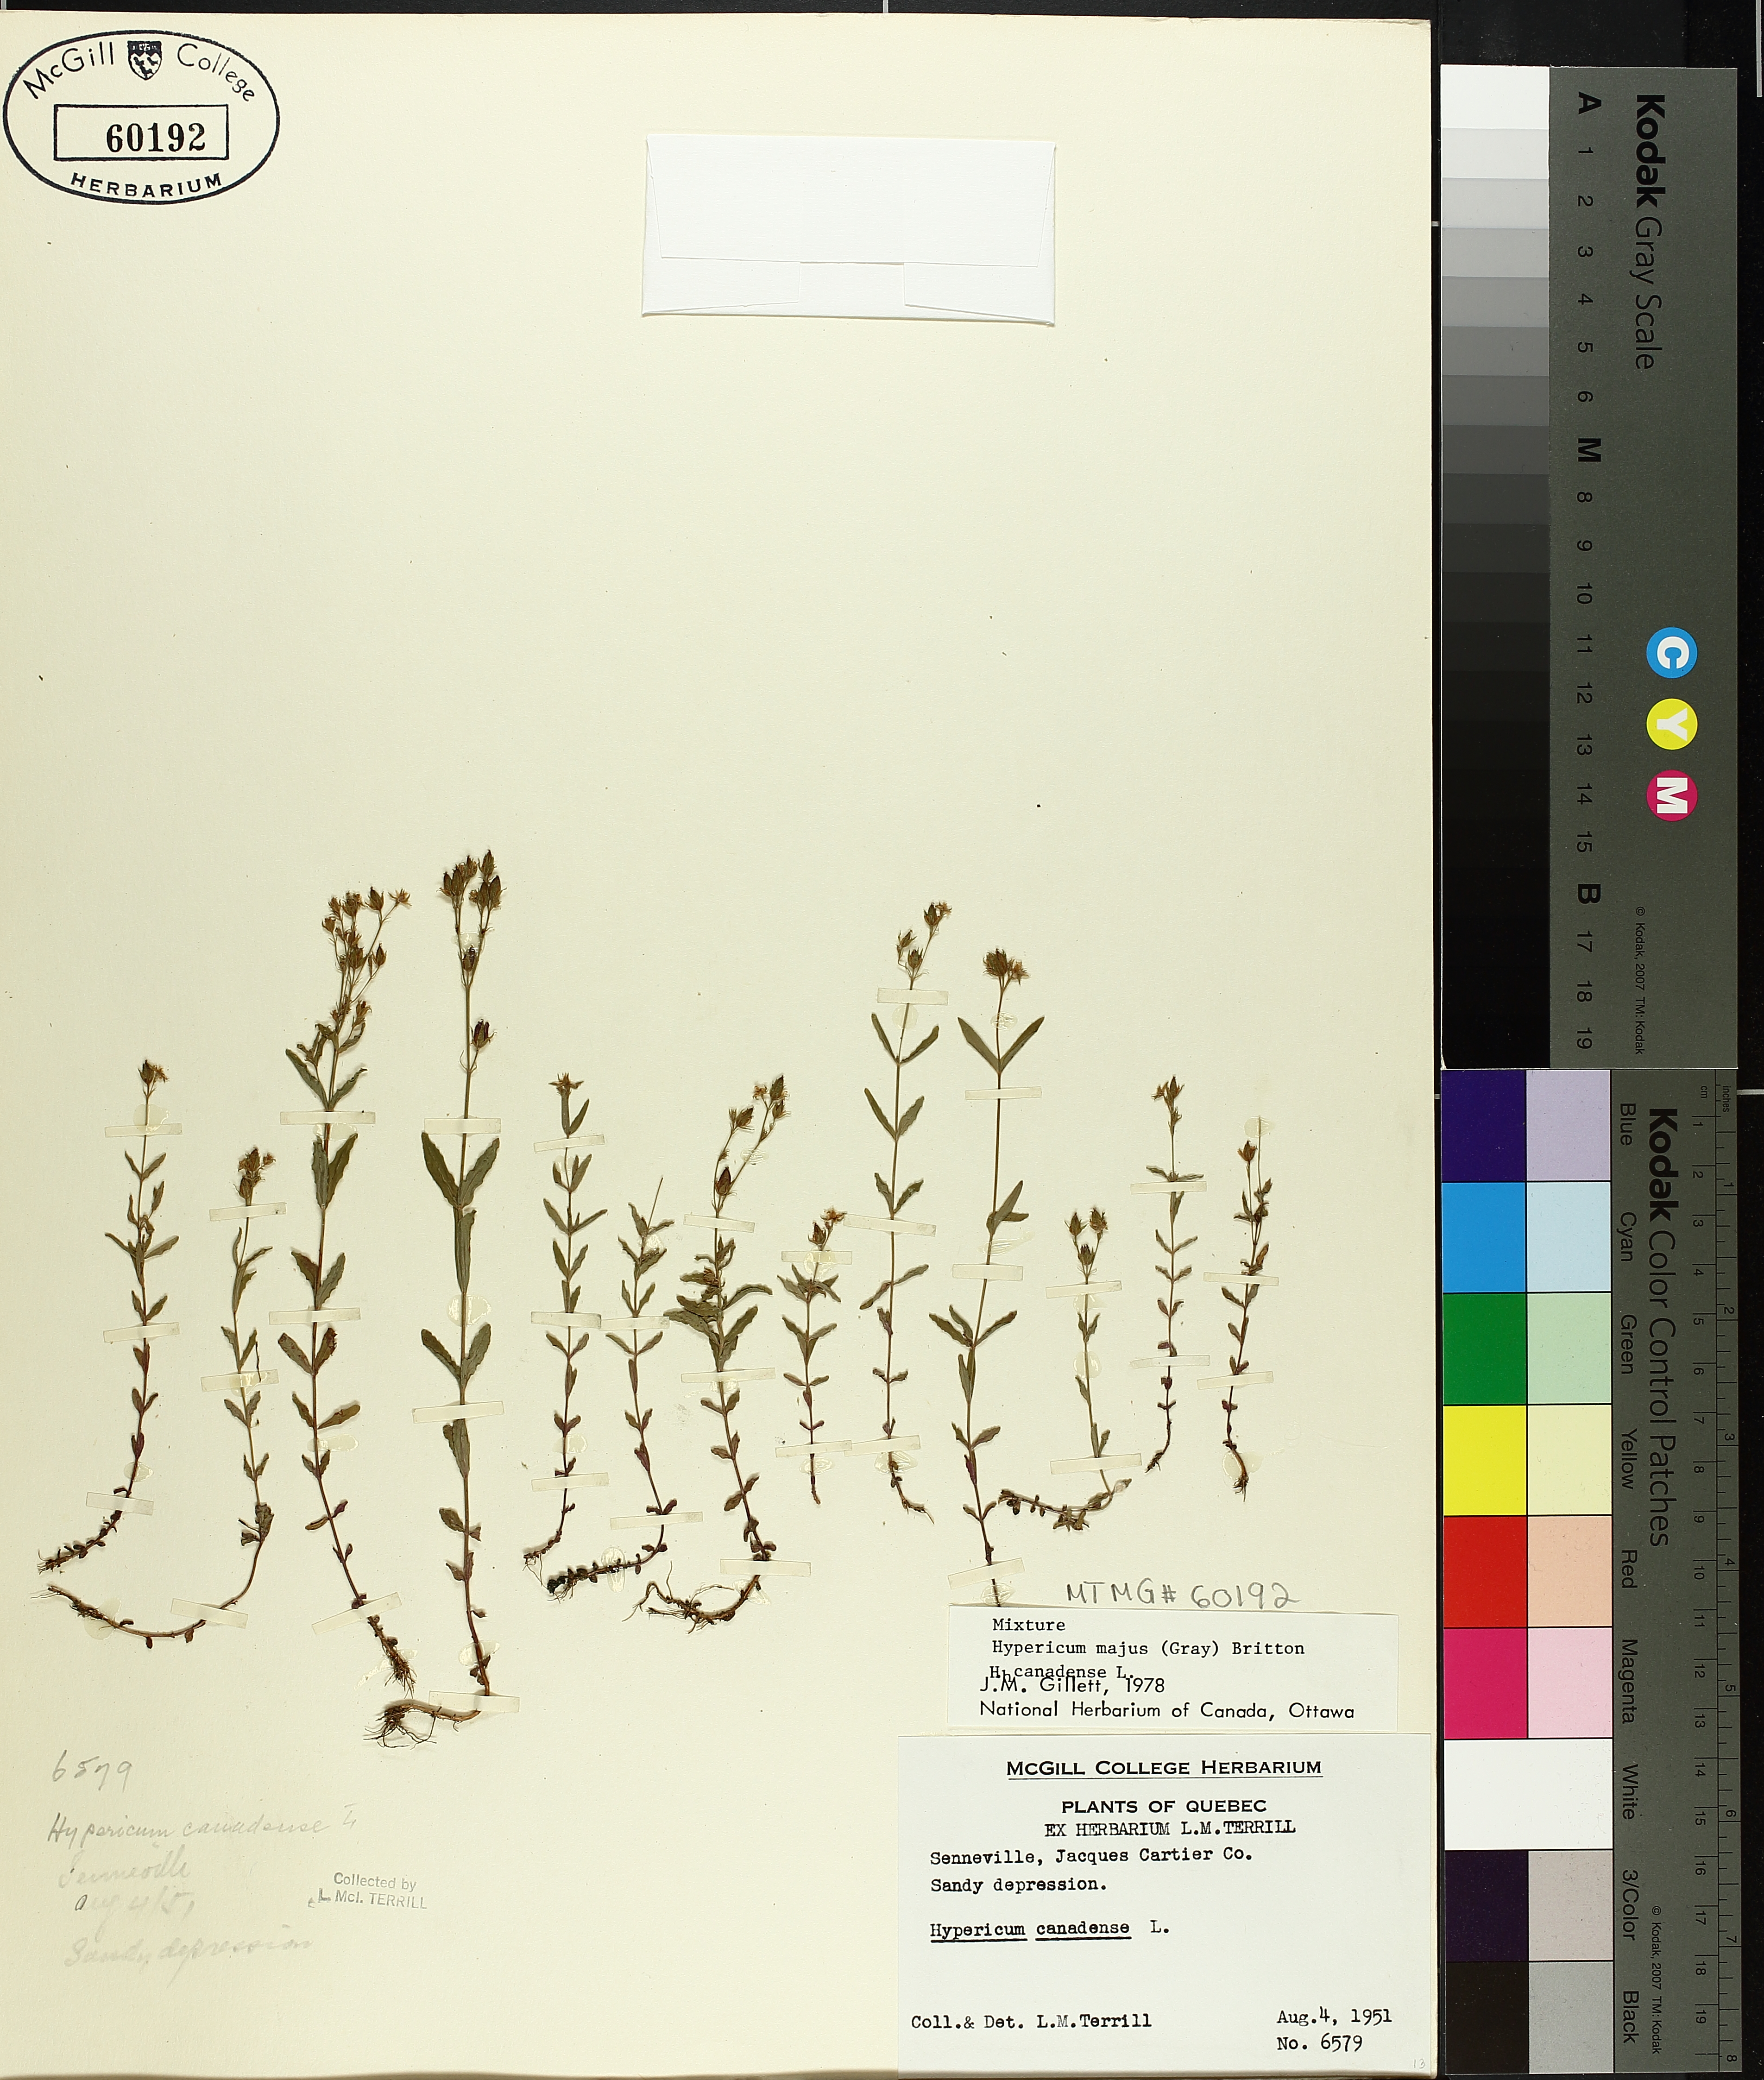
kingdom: Plantae
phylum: Tracheophyta
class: Magnoliopsida
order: Malpighiales
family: Hypericaceae
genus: Hypericum
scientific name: Hypericum majus
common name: Greater canadian st. john's-wort
